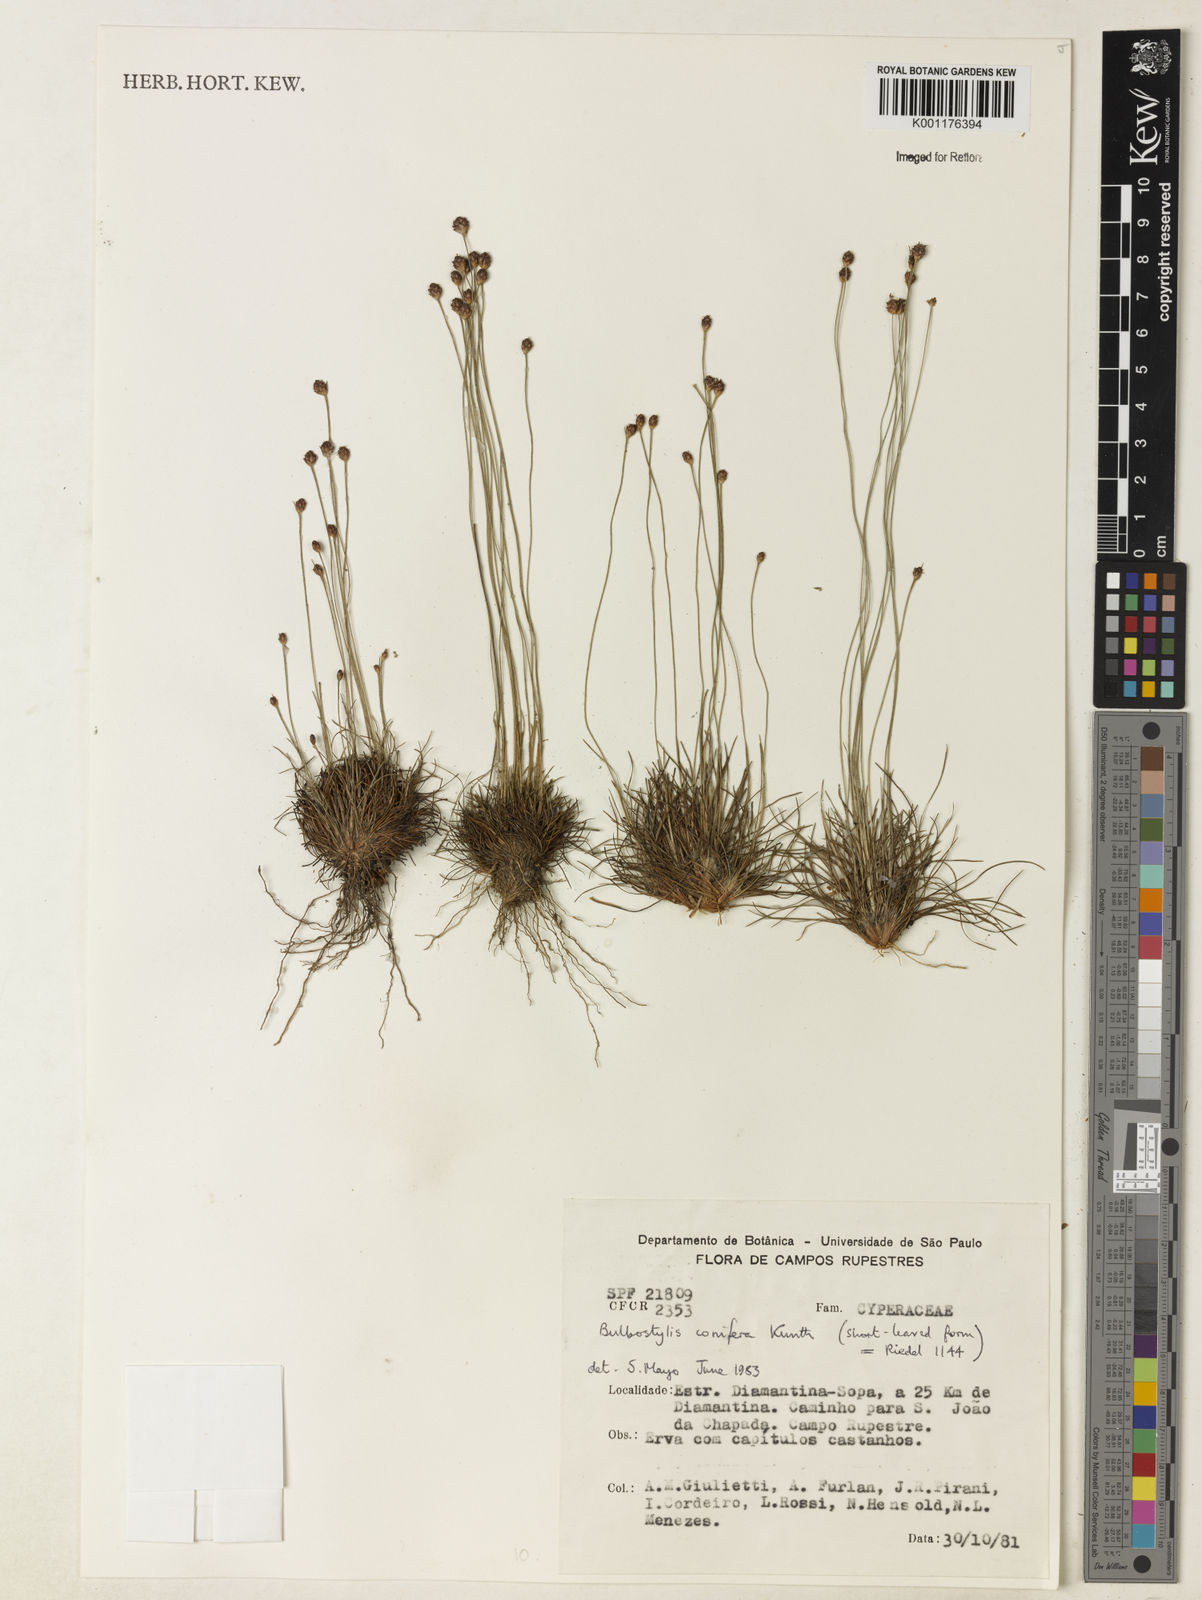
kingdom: Plantae
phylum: Tracheophyta
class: Liliopsida
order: Poales
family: Cyperaceae
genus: Bulbostylis
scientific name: Bulbostylis conifera
